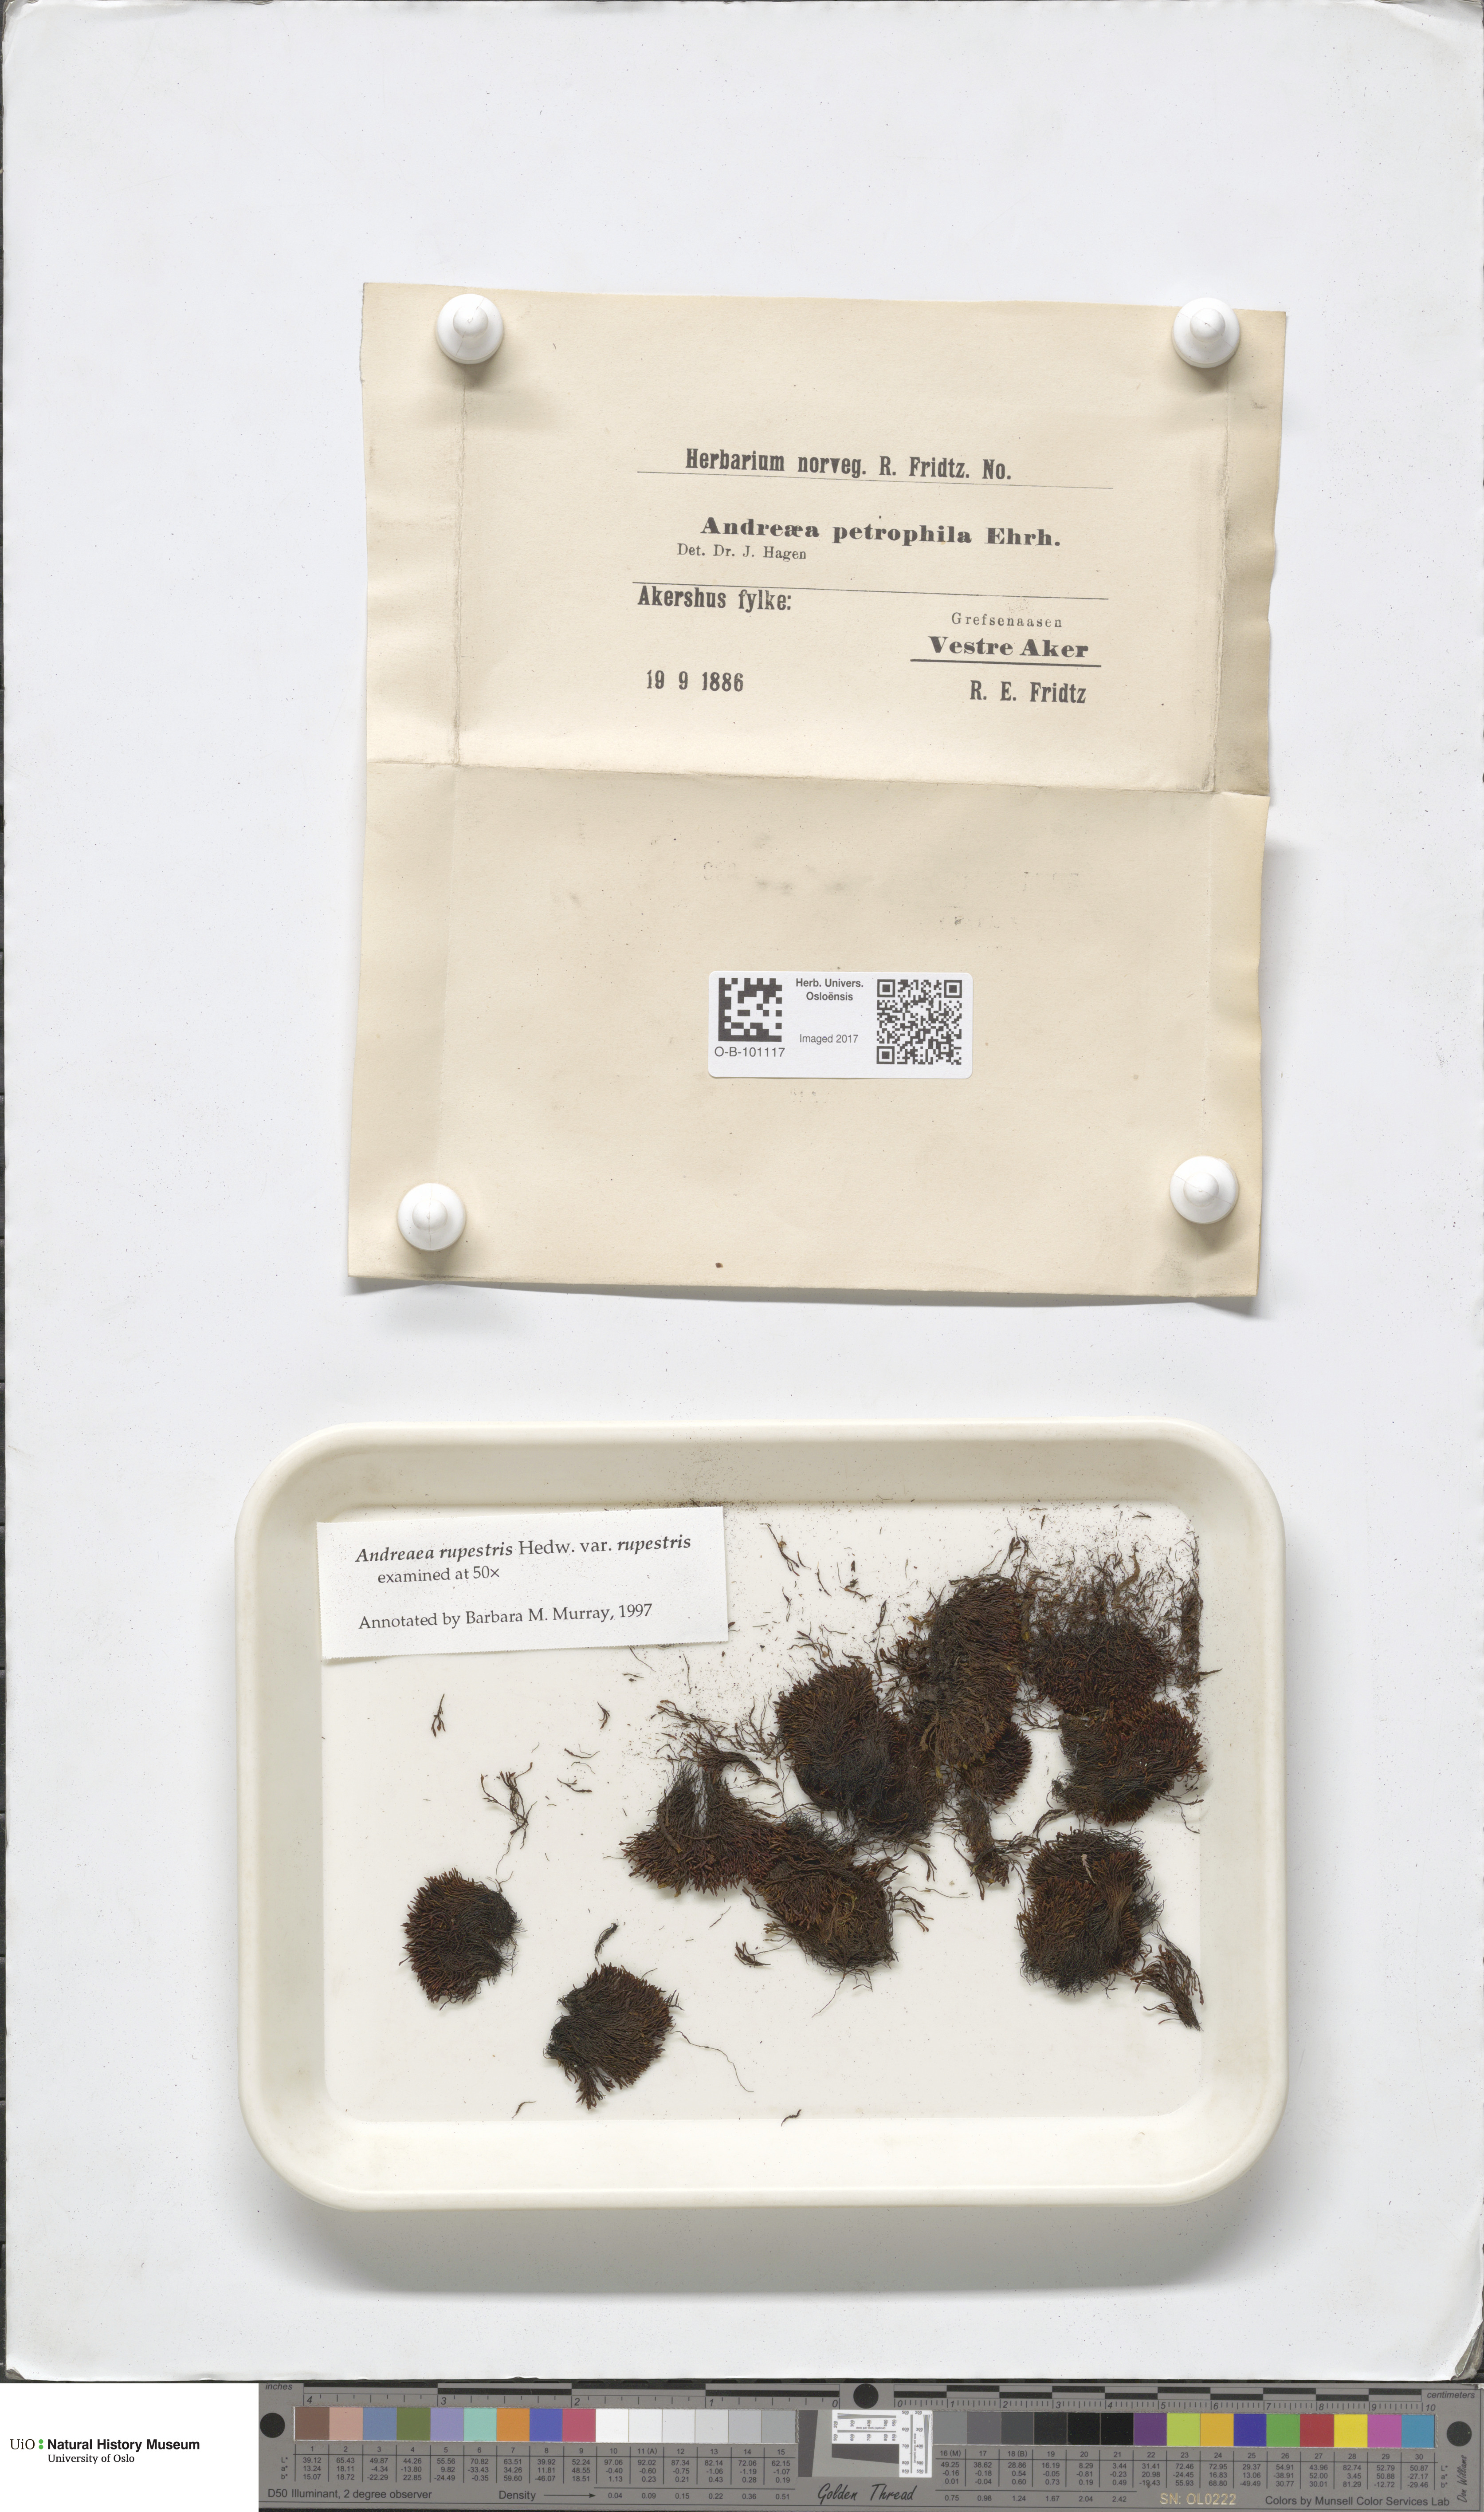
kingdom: Plantae
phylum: Bryophyta
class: Andreaeopsida
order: Andreaeales
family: Andreaeaceae
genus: Andreaea
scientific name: Andreaea rupestris
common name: Black rock moss
